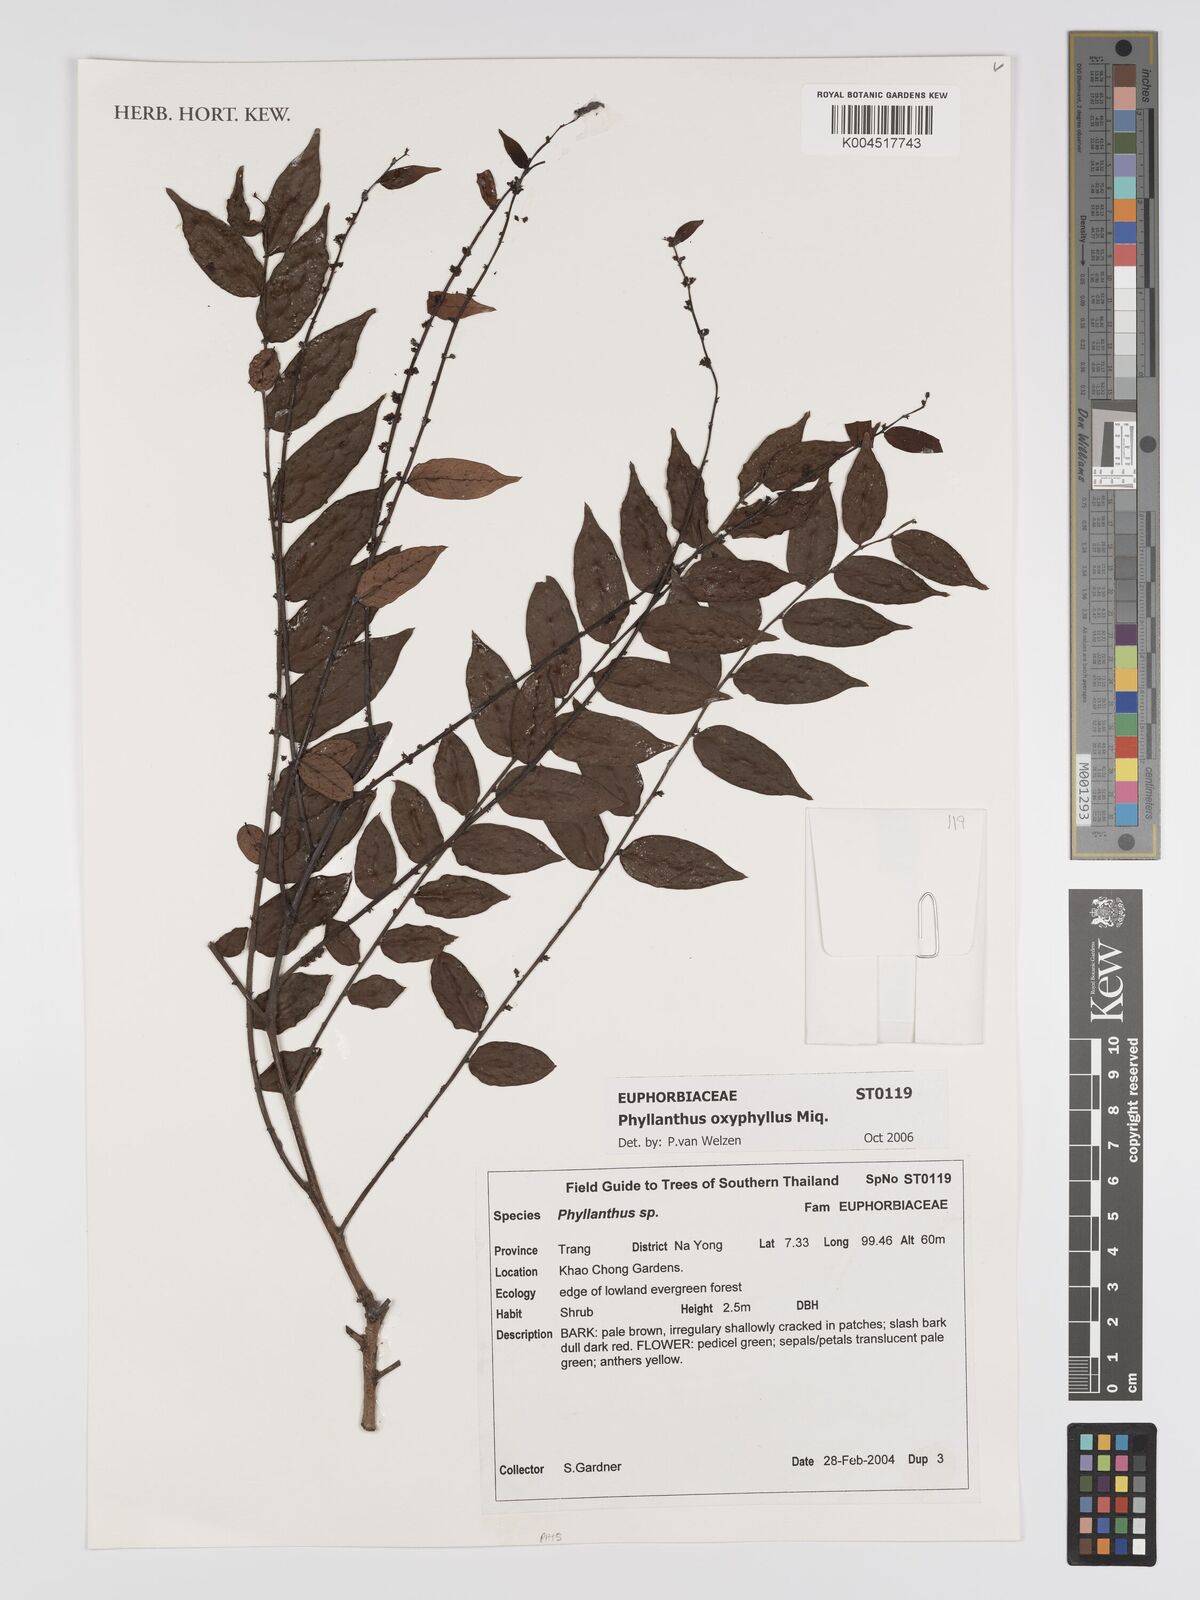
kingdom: Plantae
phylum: Tracheophyta
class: Magnoliopsida
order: Malpighiales
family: Phyllanthaceae
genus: Phyllanthus
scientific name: Phyllanthus
